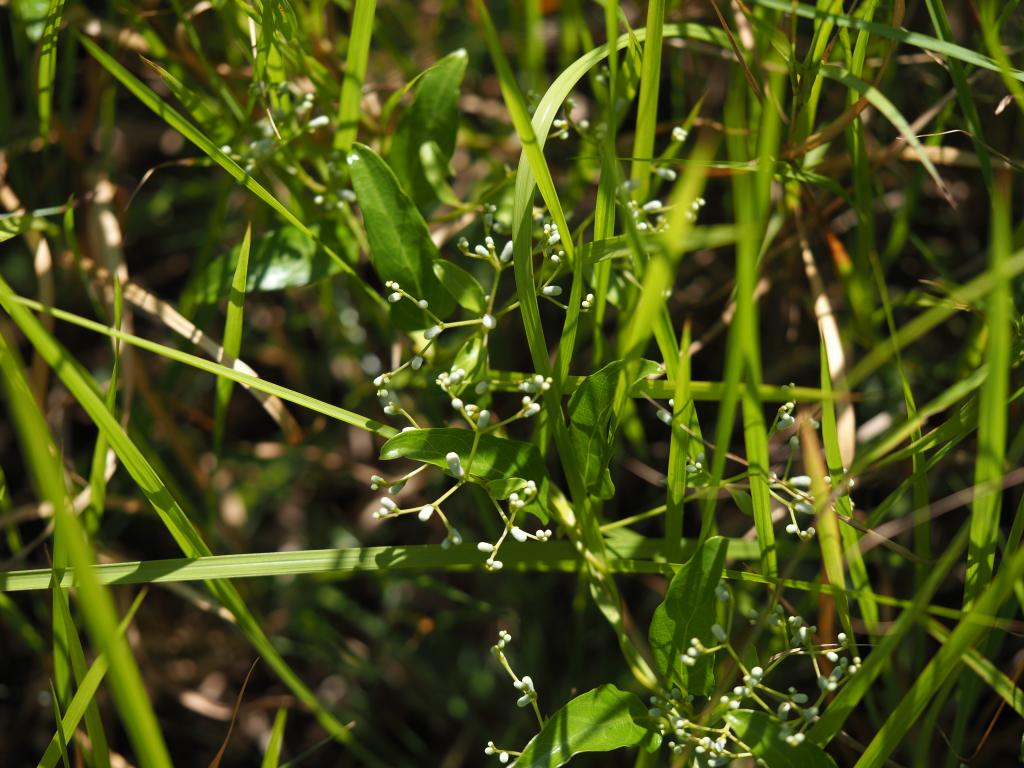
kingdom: Plantae
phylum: Tracheophyta
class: Magnoliopsida
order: Ranunculales
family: Ranunculaceae
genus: Clematis
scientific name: Clematis chinensis
